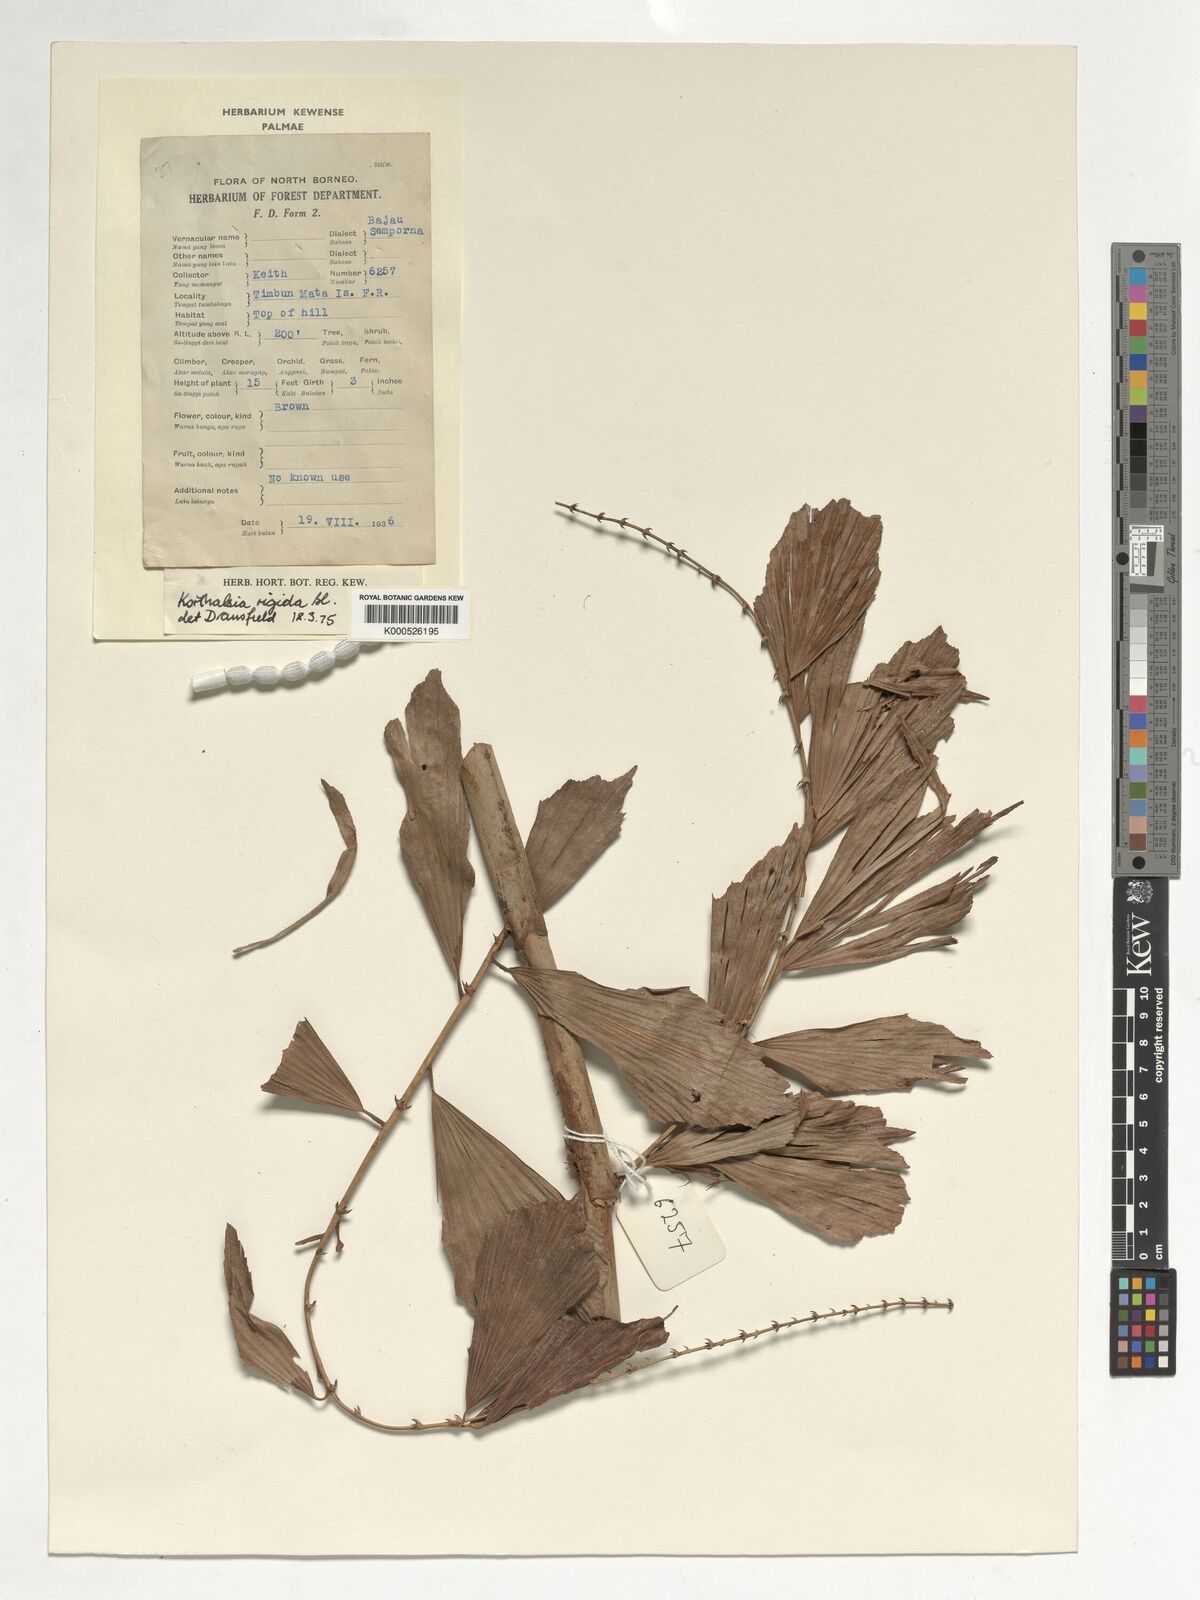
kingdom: Plantae
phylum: Tracheophyta
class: Liliopsida
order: Arecales
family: Arecaceae
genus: Korthalsia
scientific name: Korthalsia rigida
